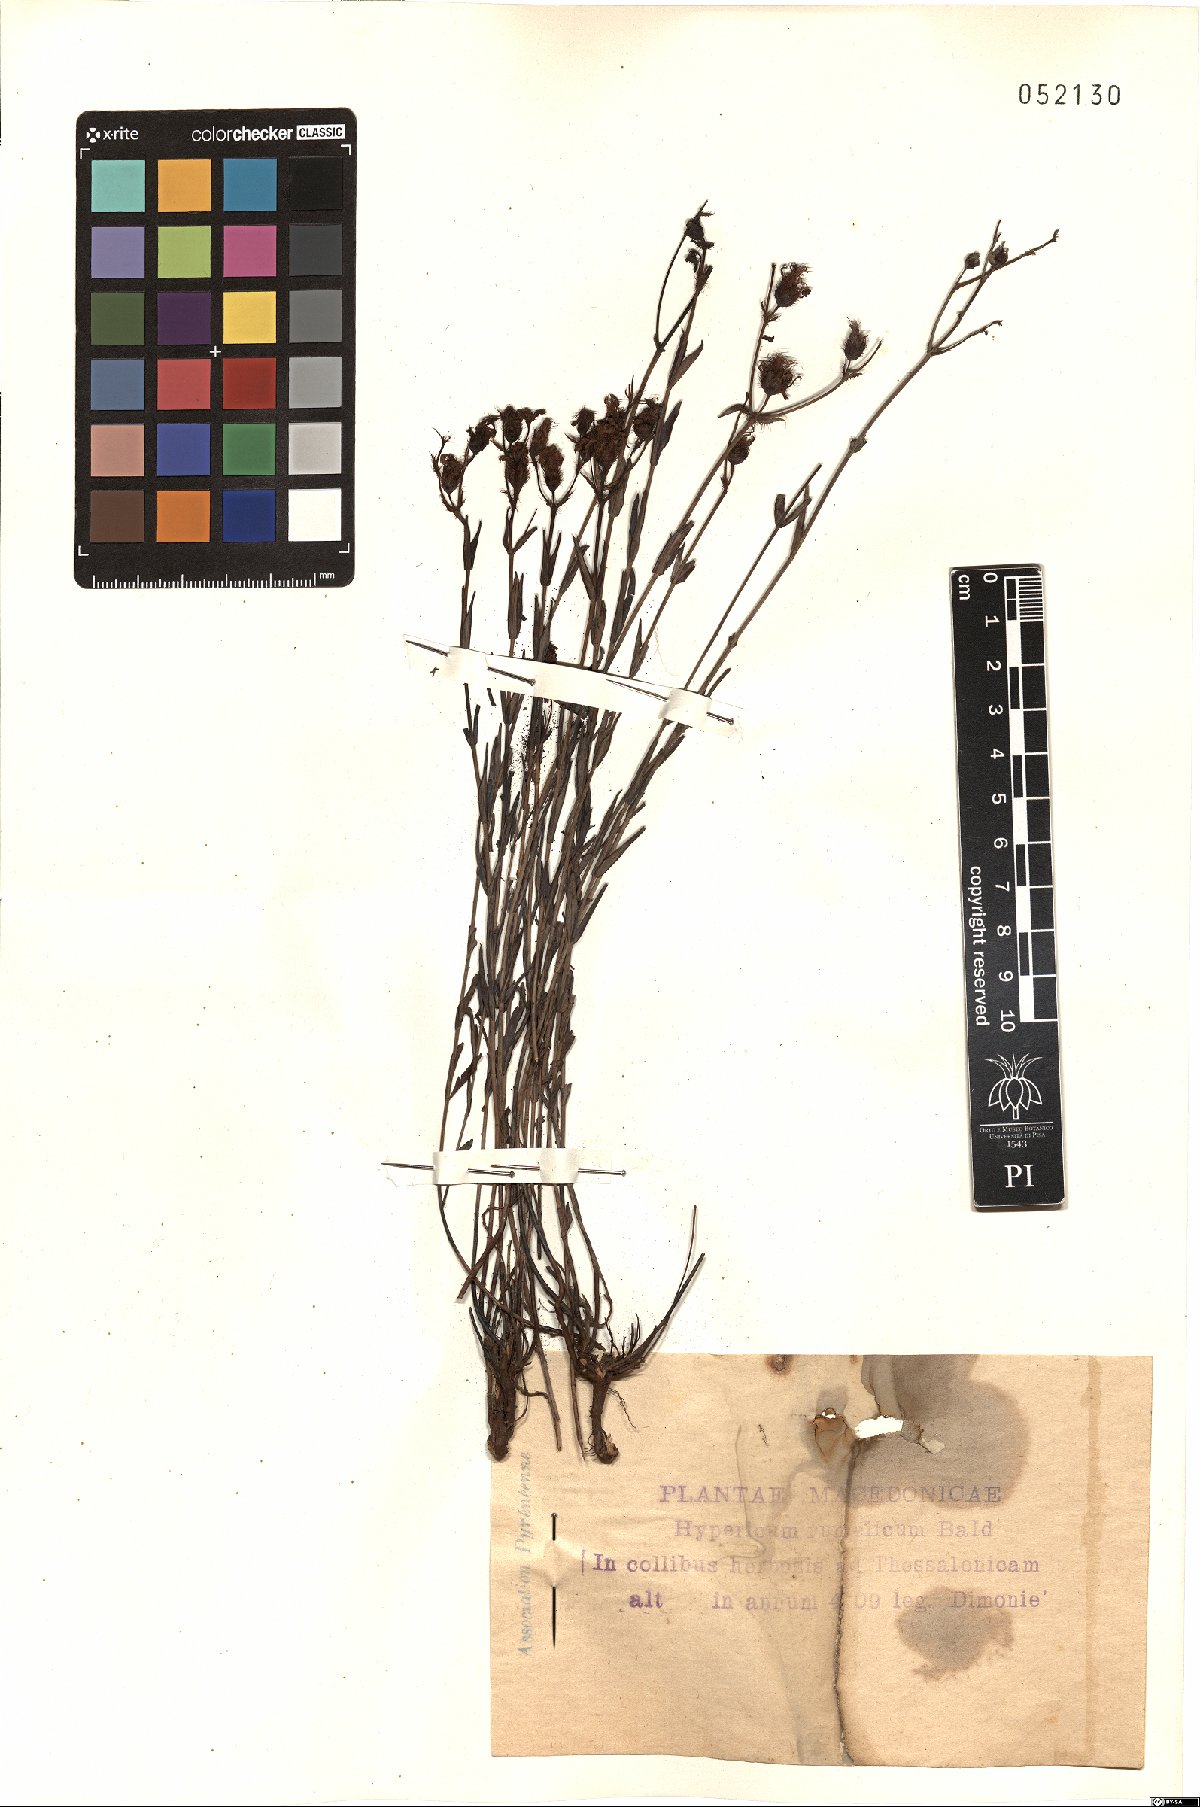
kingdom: Plantae
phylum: Tracheophyta
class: Magnoliopsida
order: Malpighiales
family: Hypericaceae
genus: Hypericum
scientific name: Hypericum rumelicum
